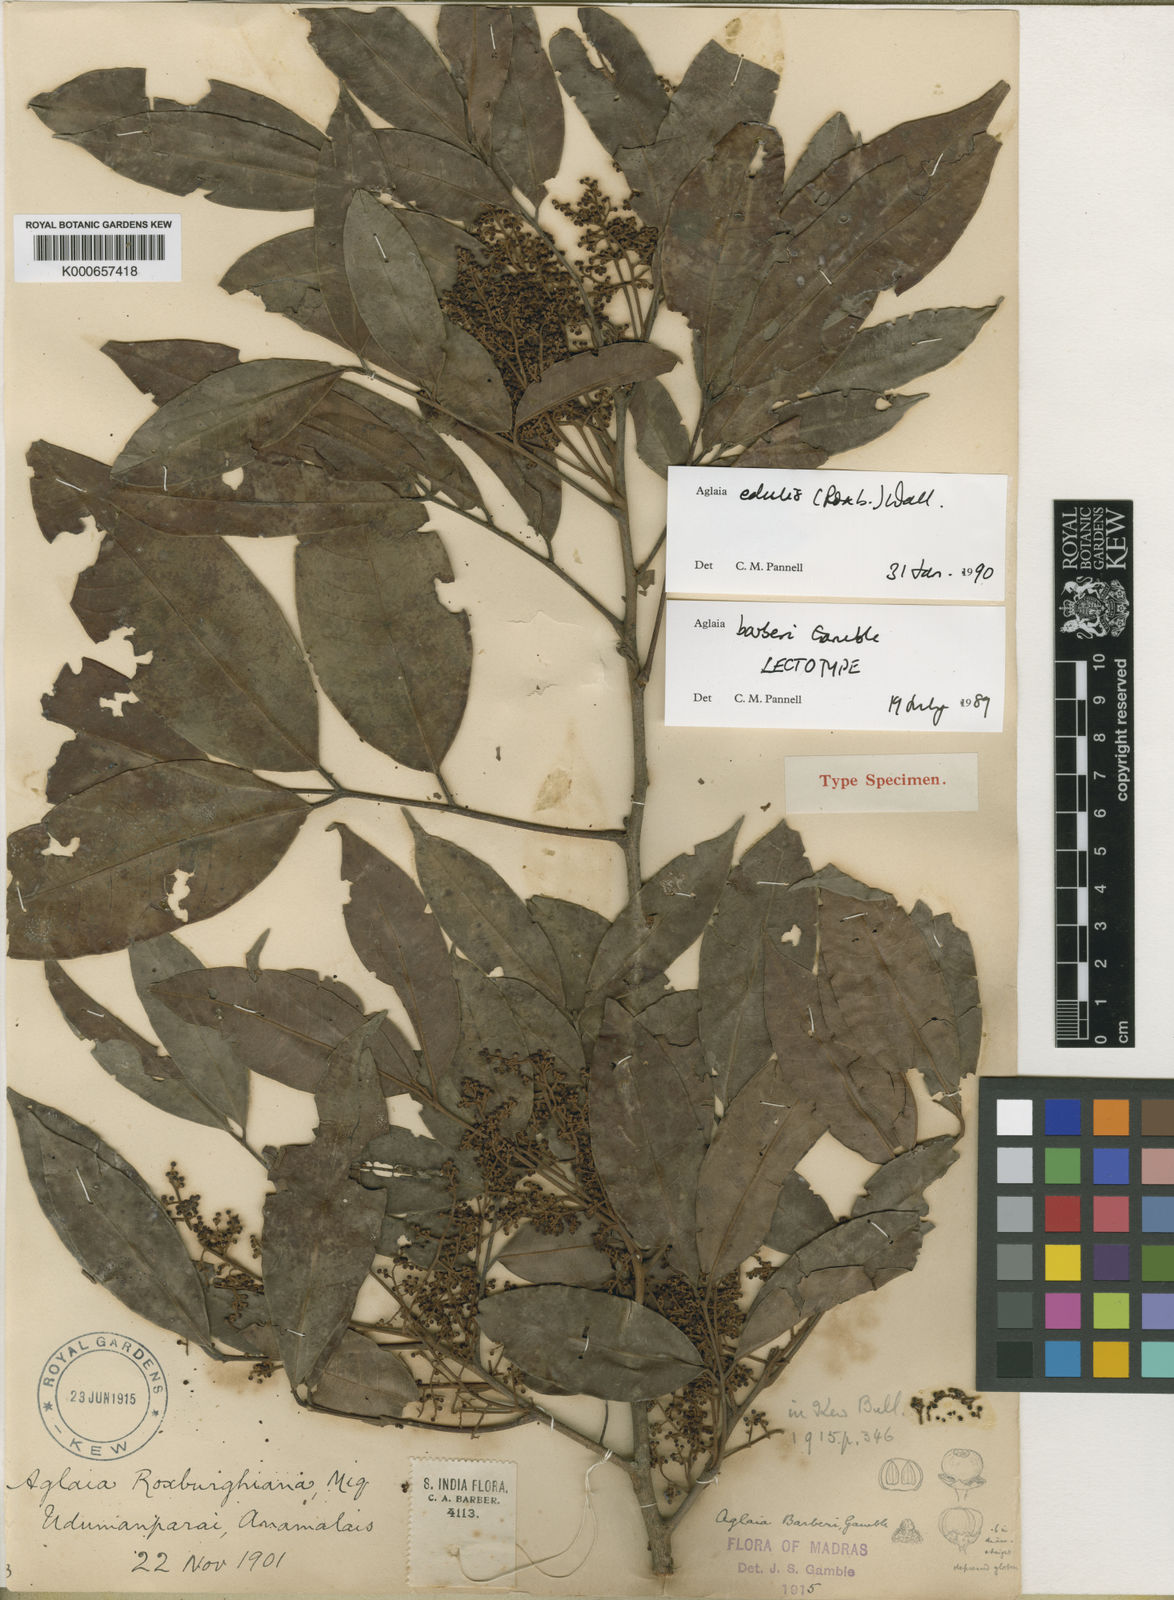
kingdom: Plantae
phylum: Tracheophyta
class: Magnoliopsida
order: Sapindales
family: Meliaceae
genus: Aglaia
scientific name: Aglaia edulis
